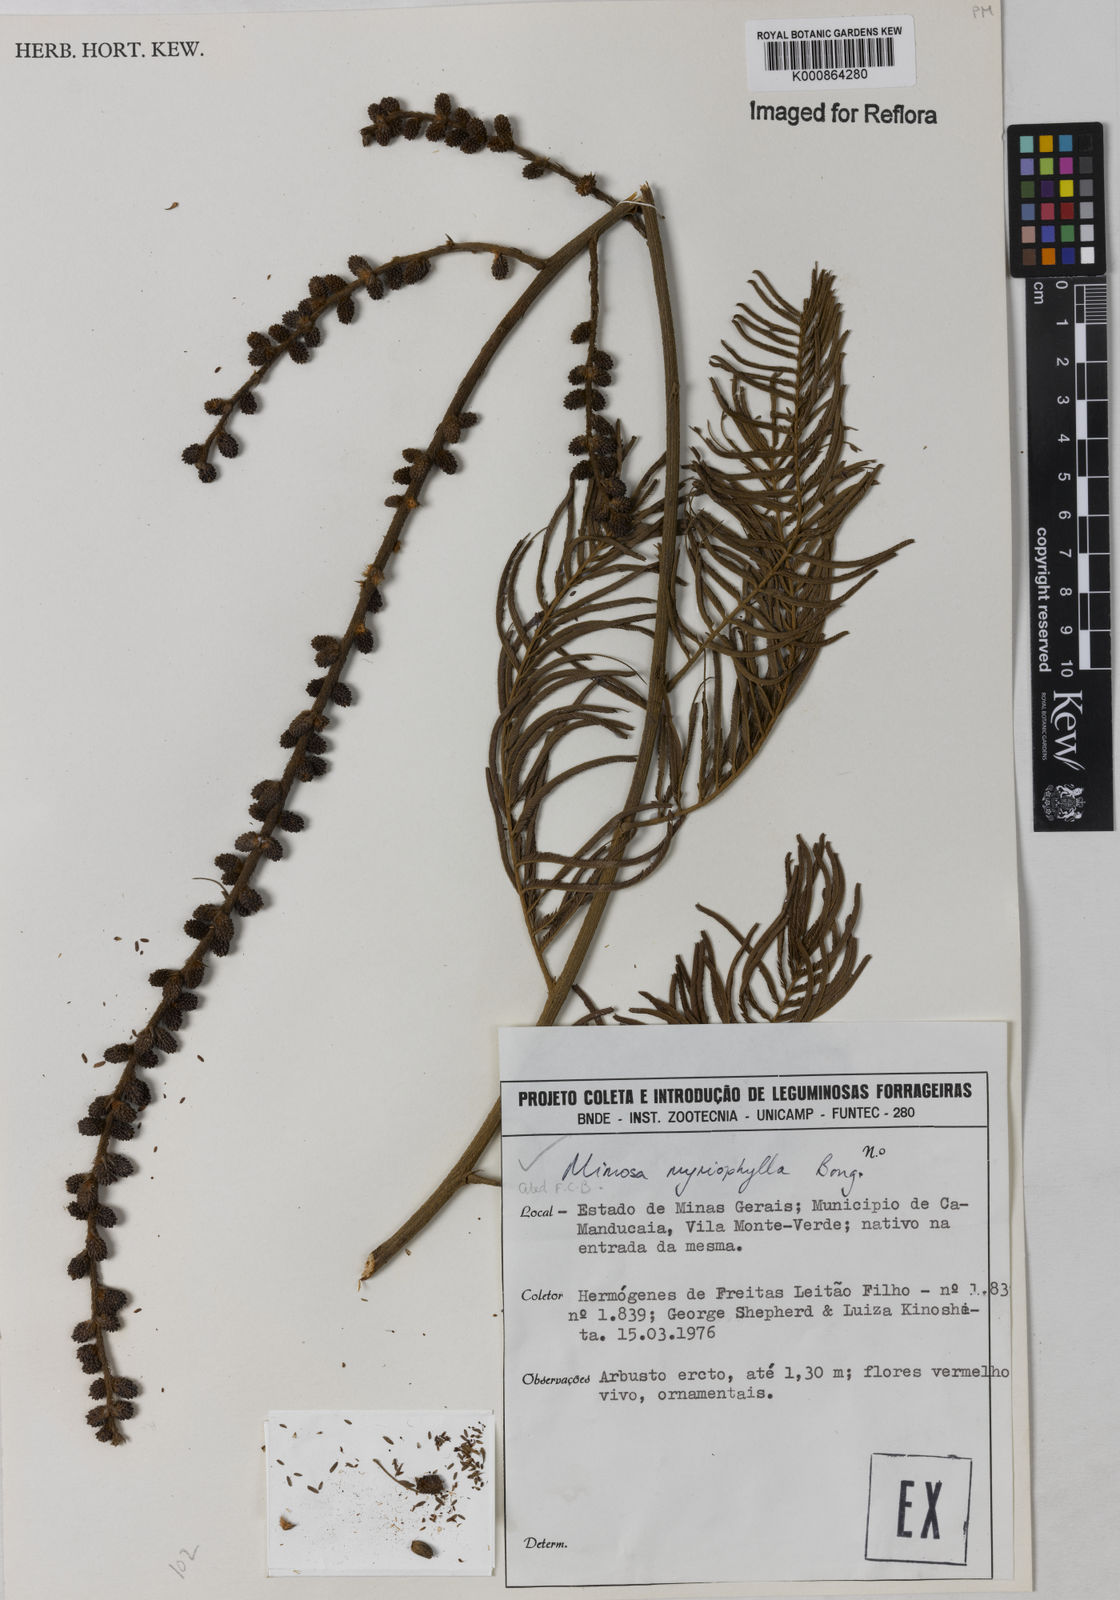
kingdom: Plantae
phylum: Tracheophyta
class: Magnoliopsida
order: Fabales
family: Fabaceae
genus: Mimosa
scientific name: Mimosa
